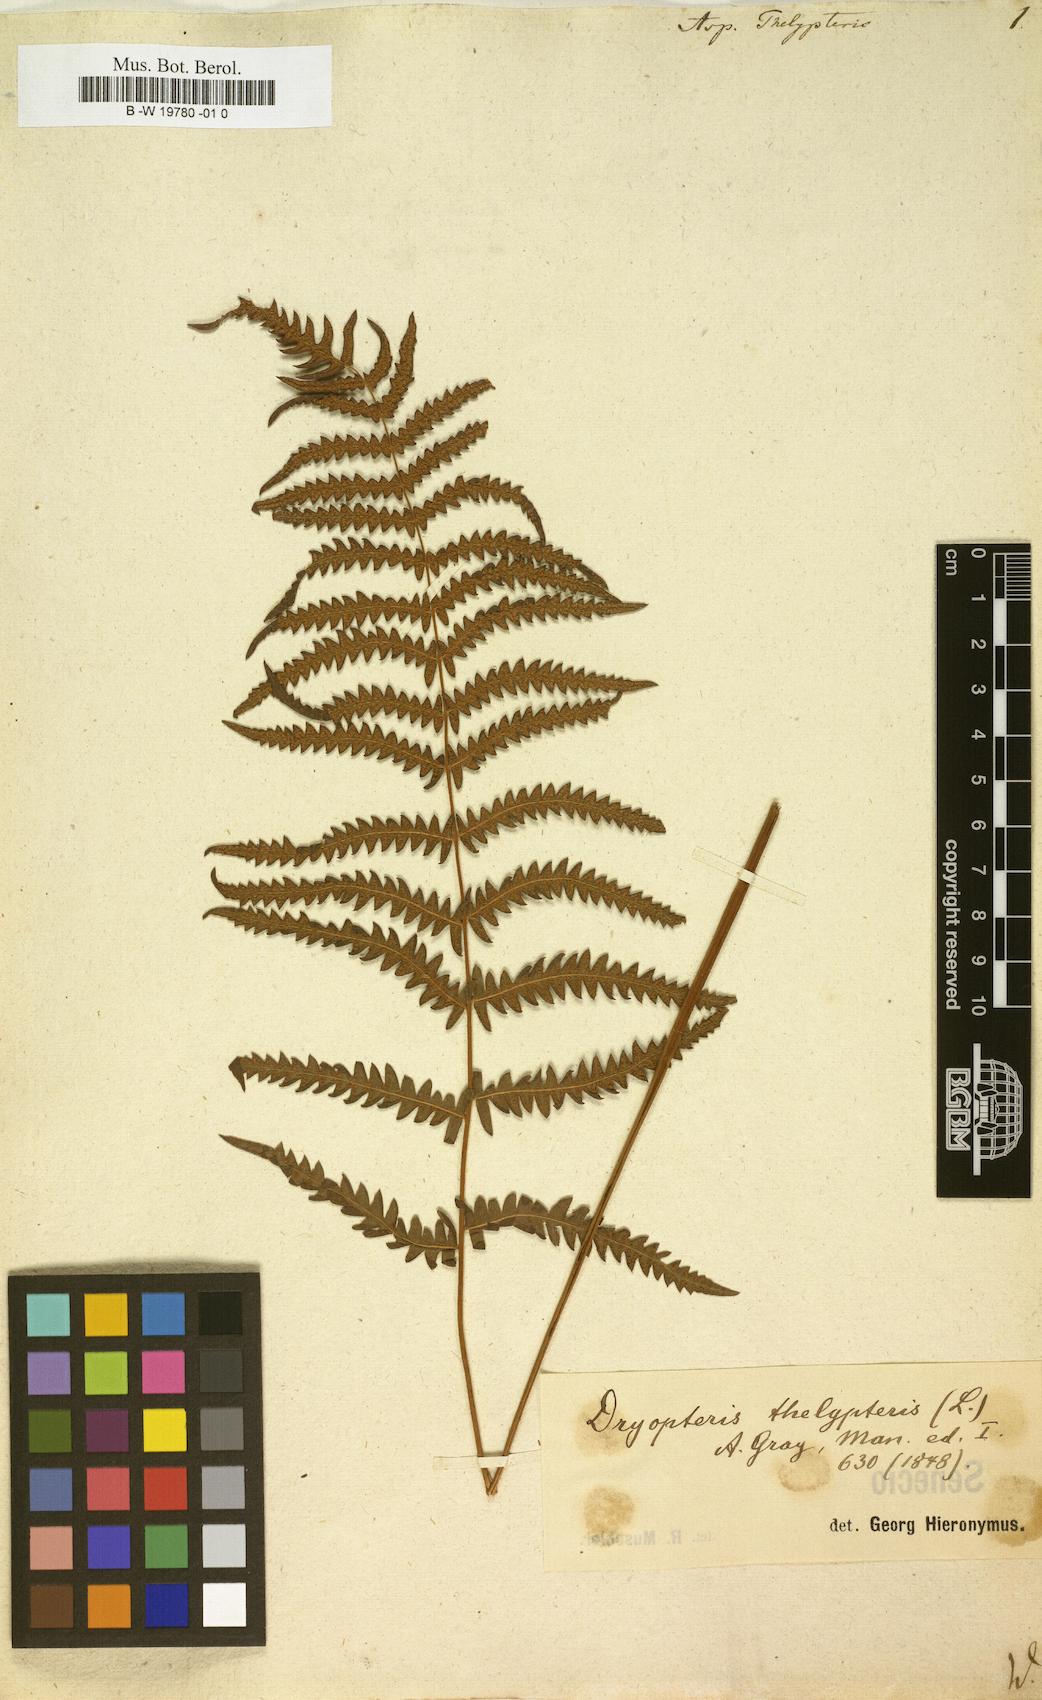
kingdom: Plantae
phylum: Tracheophyta
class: Polypodiopsida
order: Polypodiales
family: Thelypteridaceae
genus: Thelypteris
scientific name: Thelypteris palustris
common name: Marsh fern
